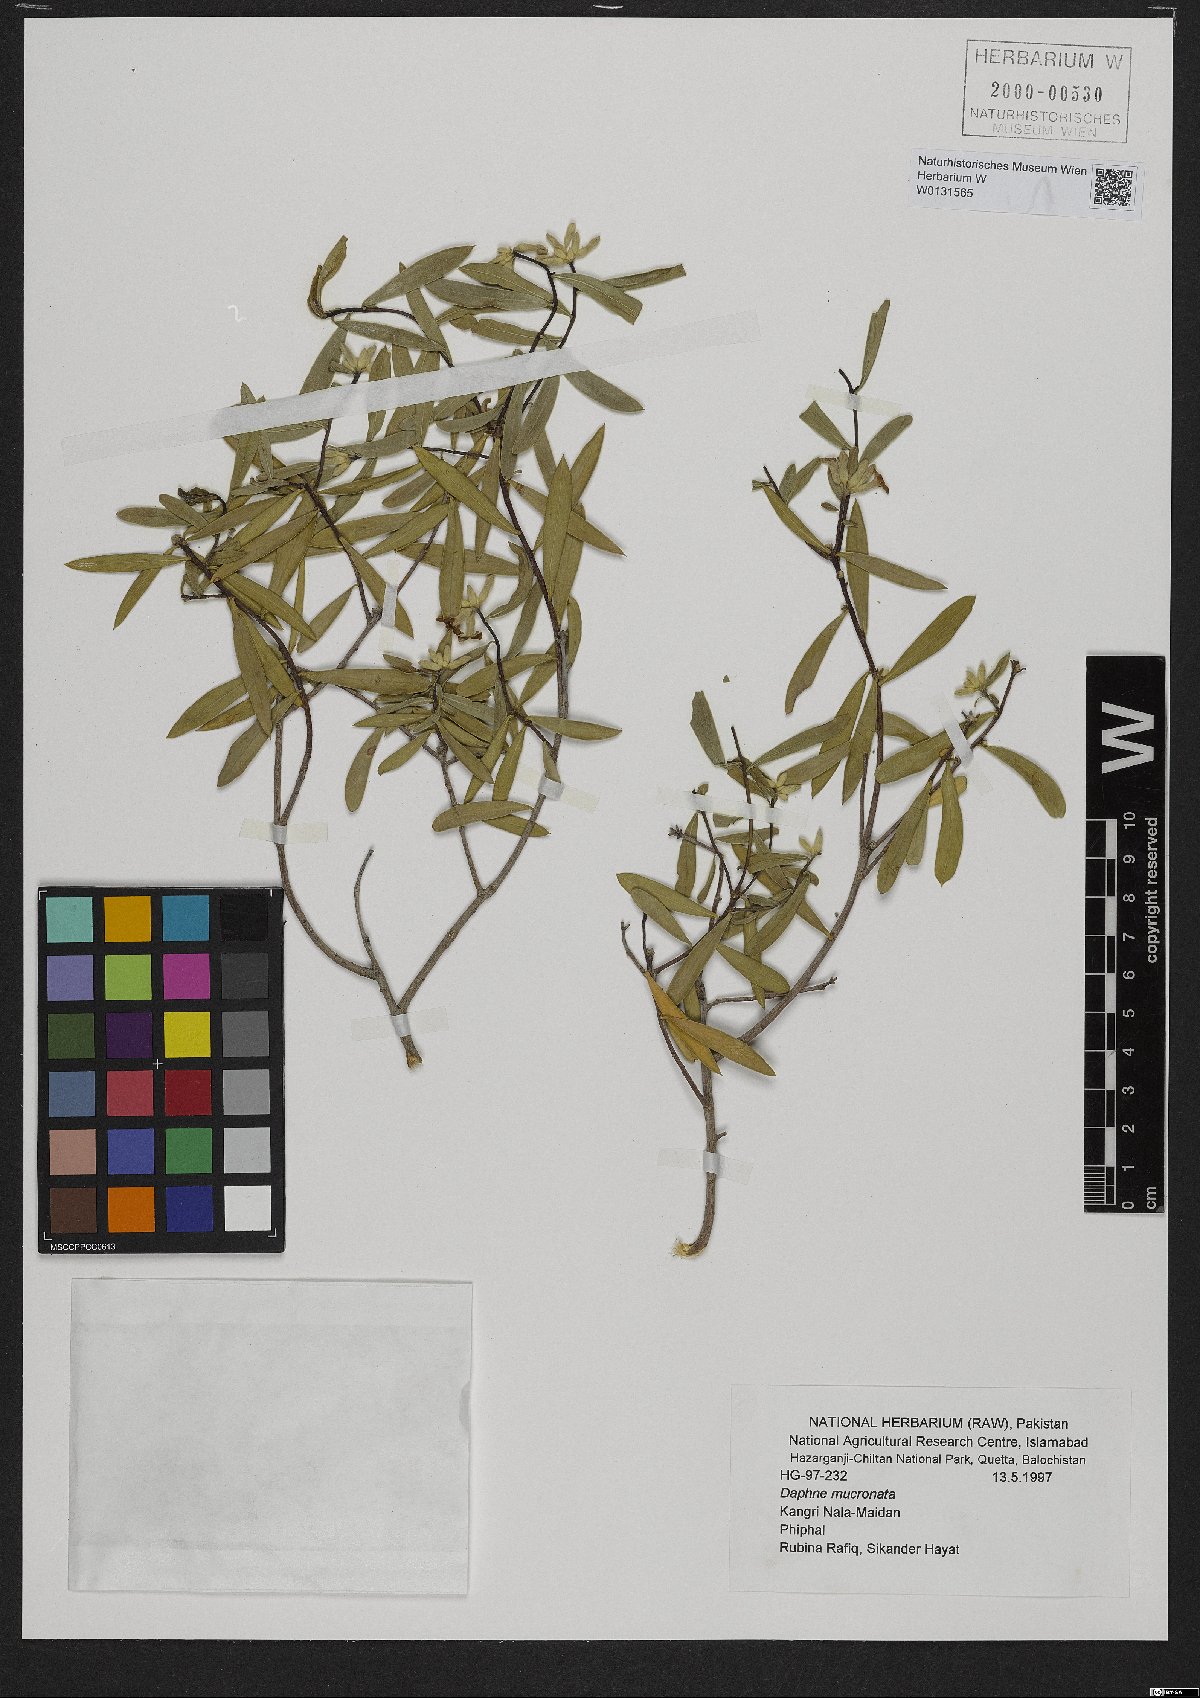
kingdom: Plantae
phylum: Tracheophyta
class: Magnoliopsida
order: Malvales
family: Thymelaeaceae
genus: Daphne
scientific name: Daphne mucronata
